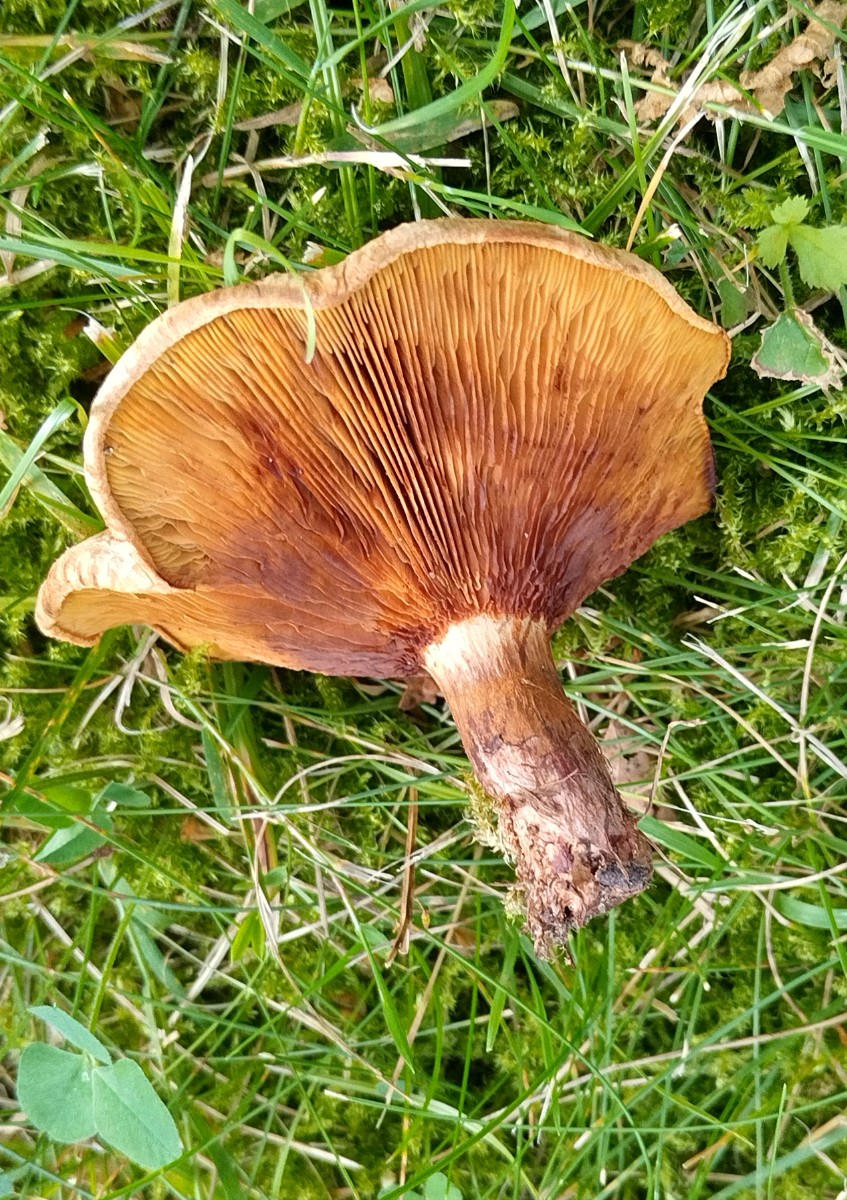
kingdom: Fungi
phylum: Basidiomycota
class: Agaricomycetes
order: Boletales
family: Paxillaceae
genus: Paxillus
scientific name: Paxillus involutus
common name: almindelig netbladhat
